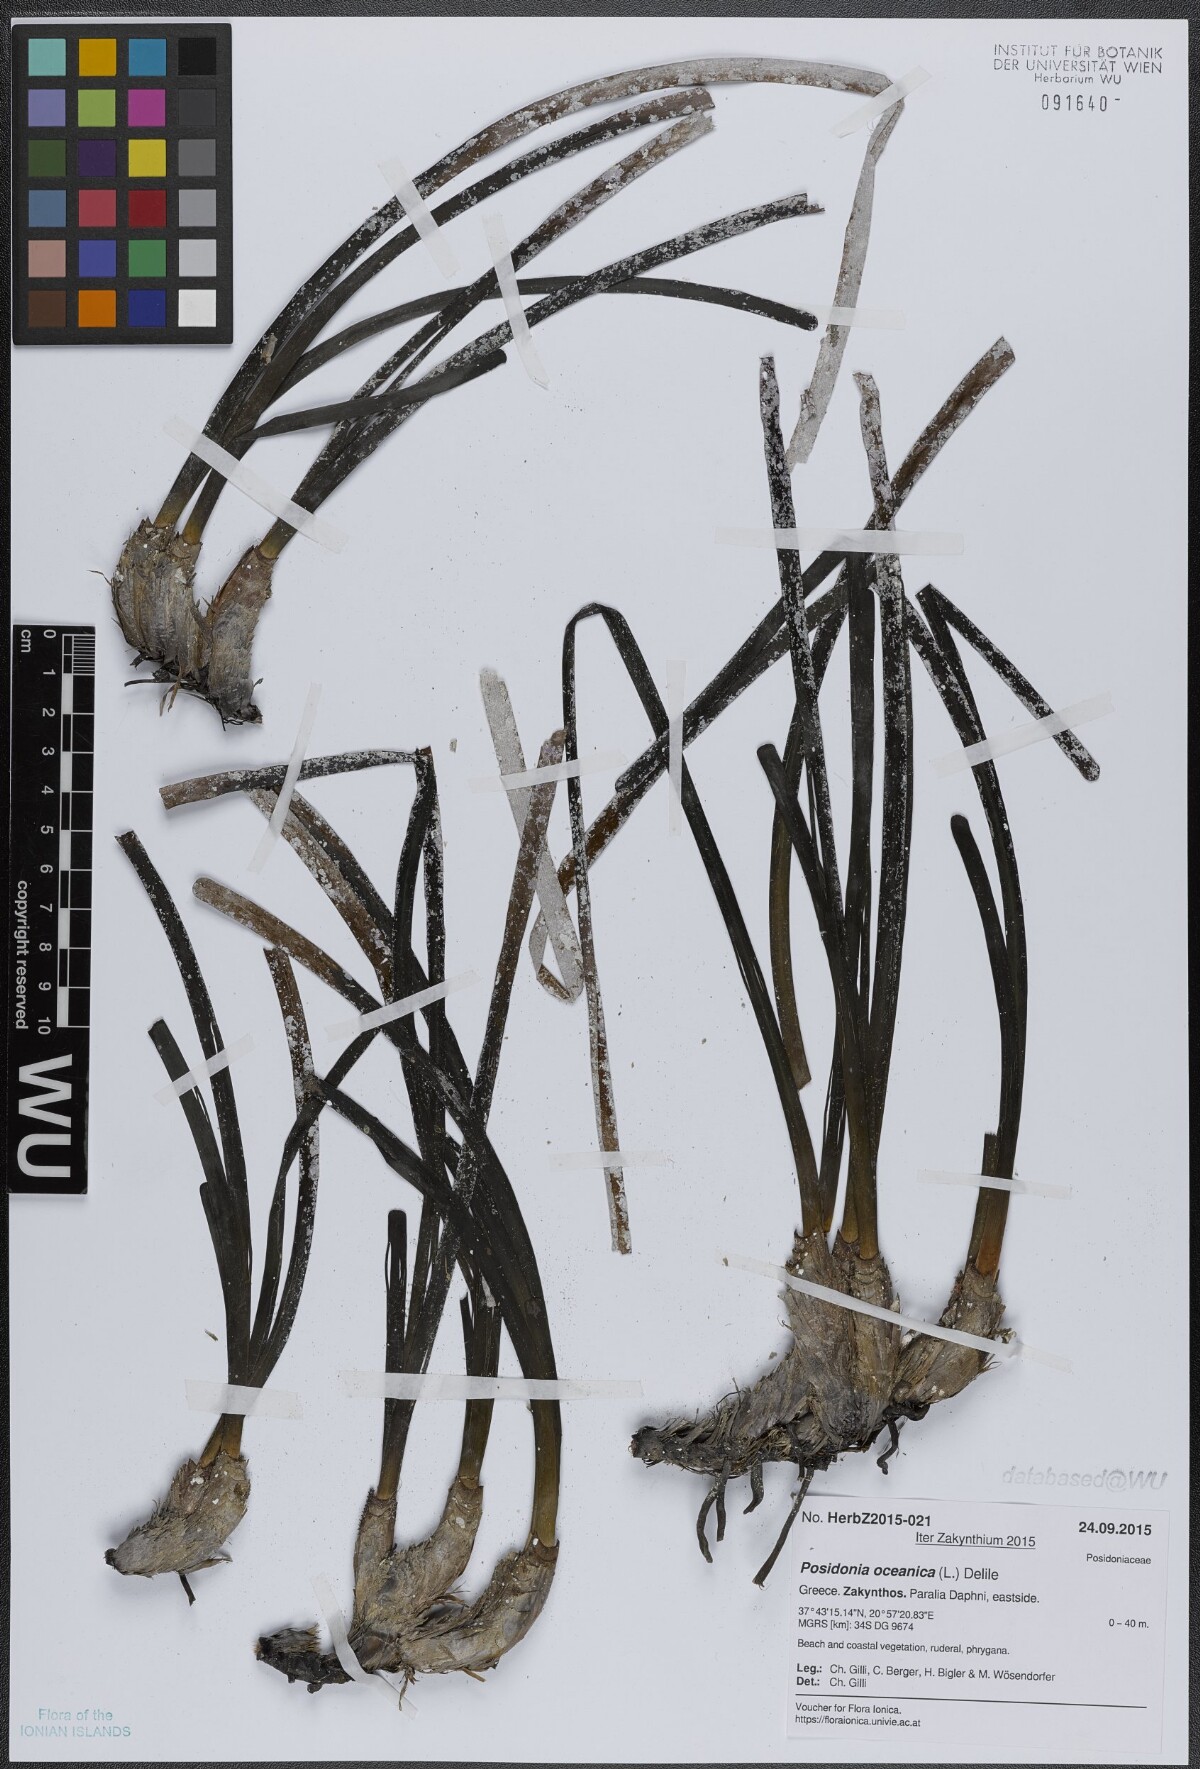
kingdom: Plantae
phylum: Tracheophyta
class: Liliopsida
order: Alismatales
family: Posidoniaceae
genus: Posidonia
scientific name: Posidonia oceanica
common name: Mediterranean tapeweed
